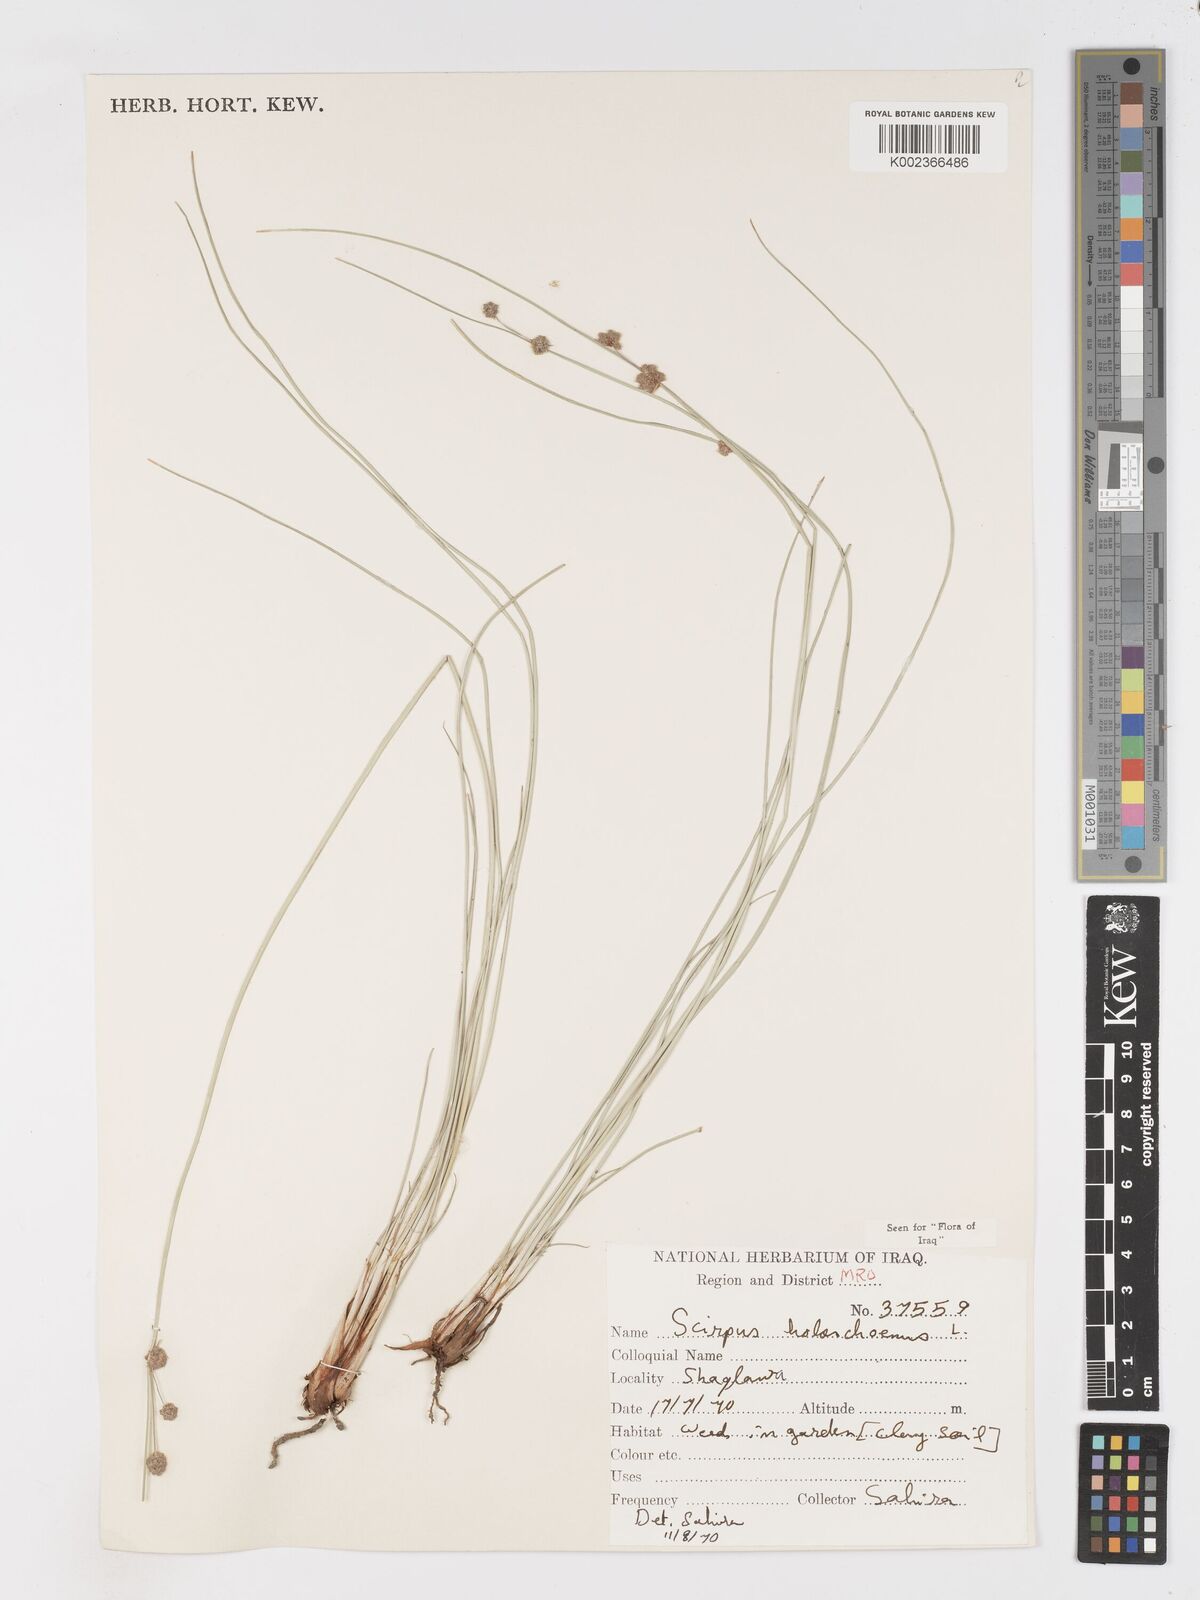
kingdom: Plantae
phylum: Tracheophyta
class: Liliopsida
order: Poales
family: Cyperaceae
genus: Scirpoides
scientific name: Scirpoides holoschoenus
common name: Round-headed club-rush
